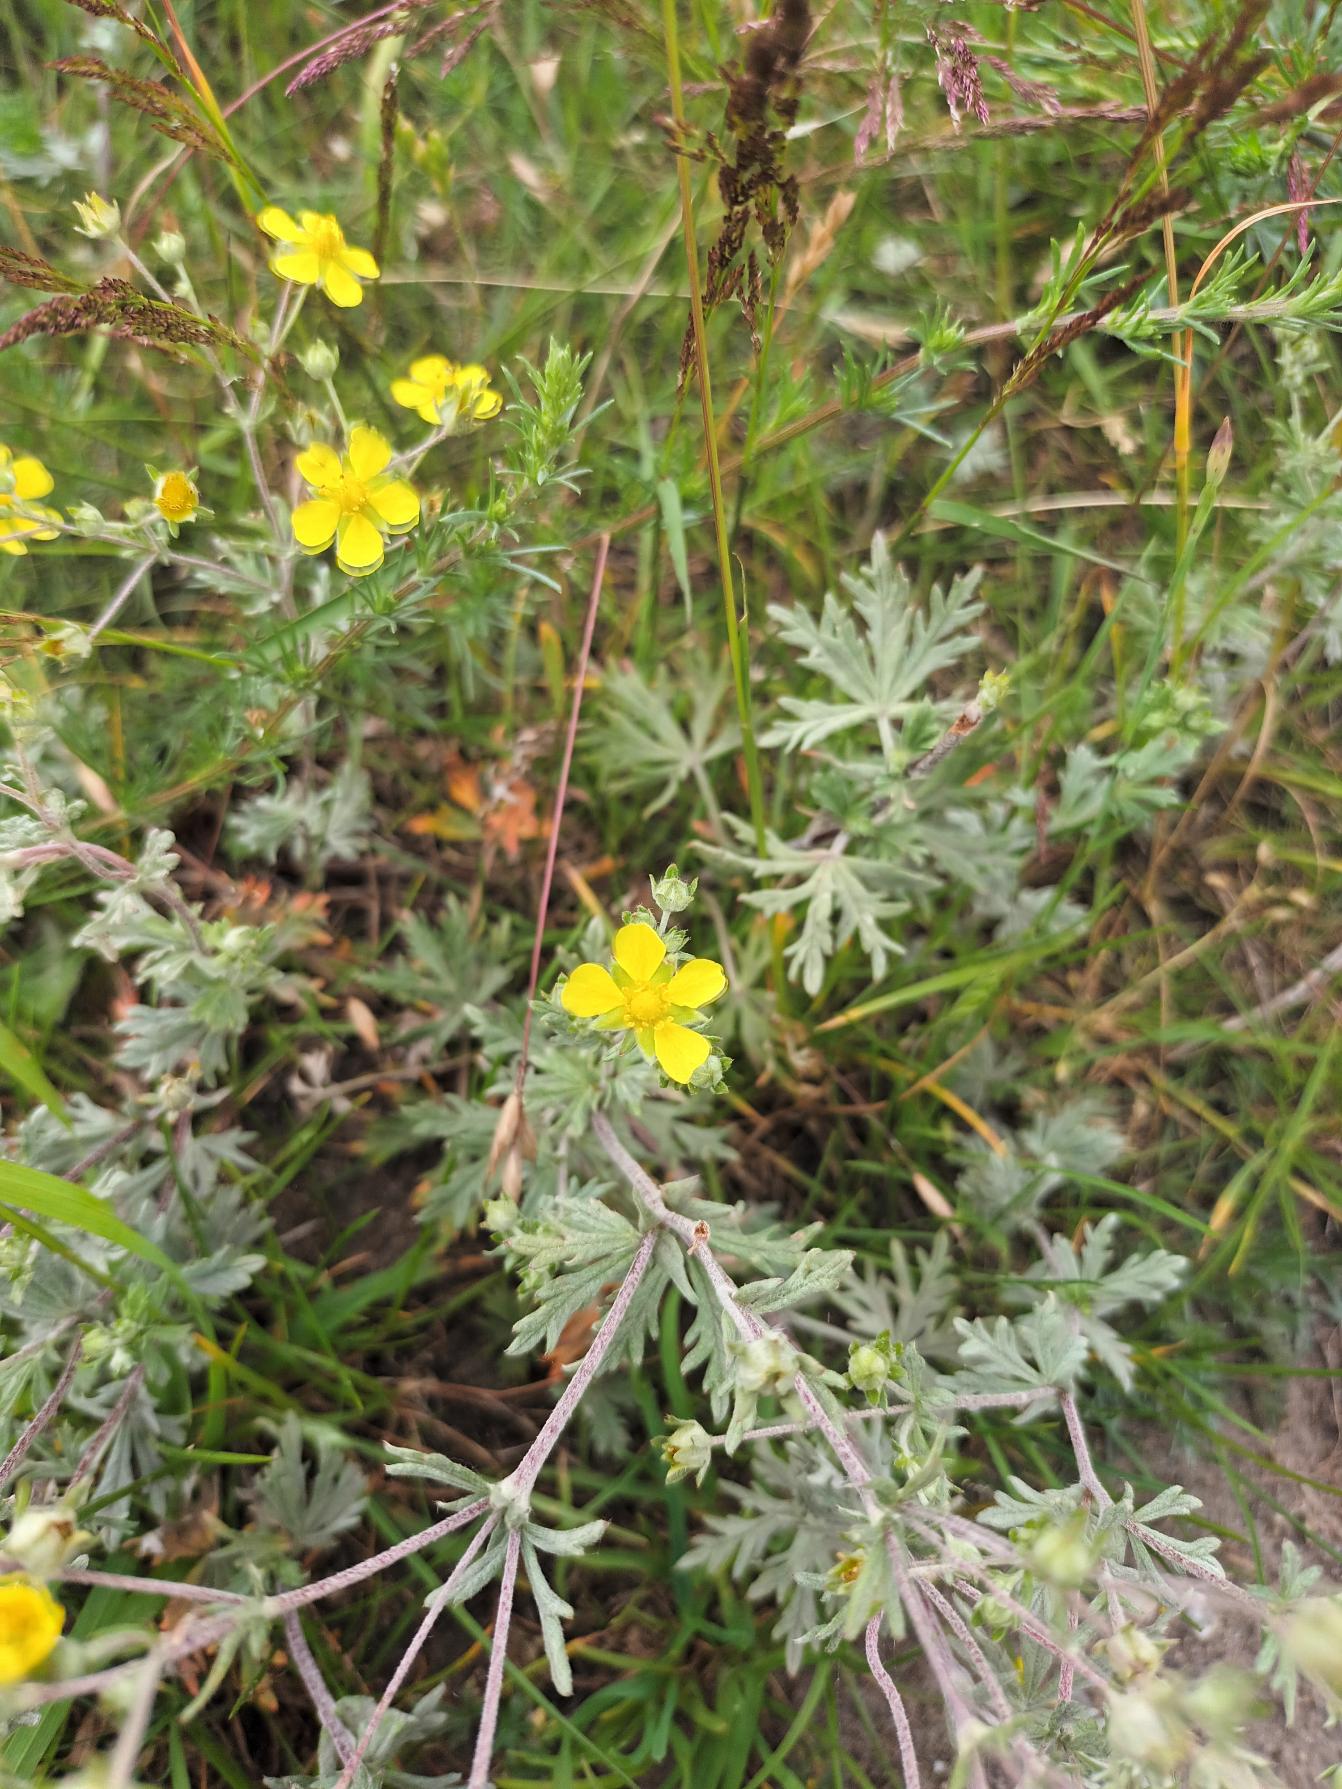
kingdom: Plantae
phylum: Tracheophyta
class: Magnoliopsida
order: Rosales
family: Rosaceae
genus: Potentilla
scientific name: Potentilla neglecta
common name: Håret sølv-potentil
